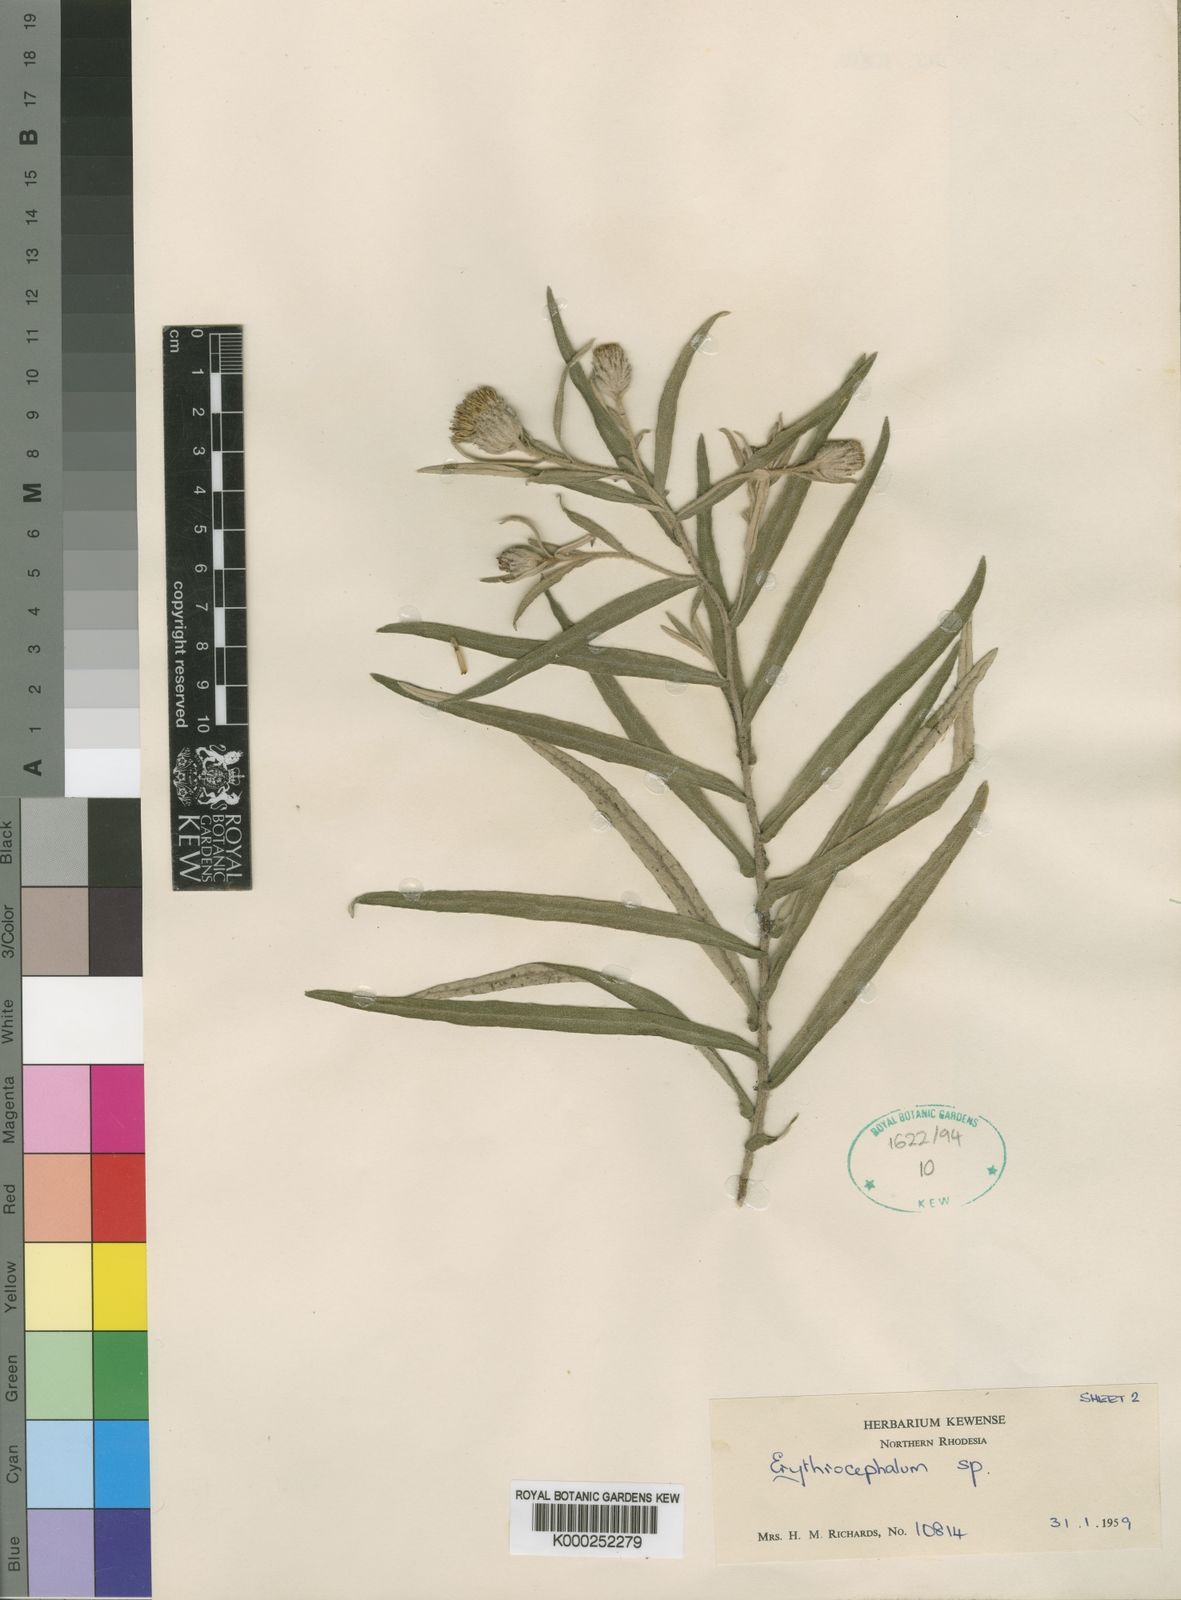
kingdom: Plantae
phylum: Tracheophyta
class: Magnoliopsida
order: Asterales
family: Asteraceae
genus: Erythrocephalum
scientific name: Erythrocephalum scabrifolium
